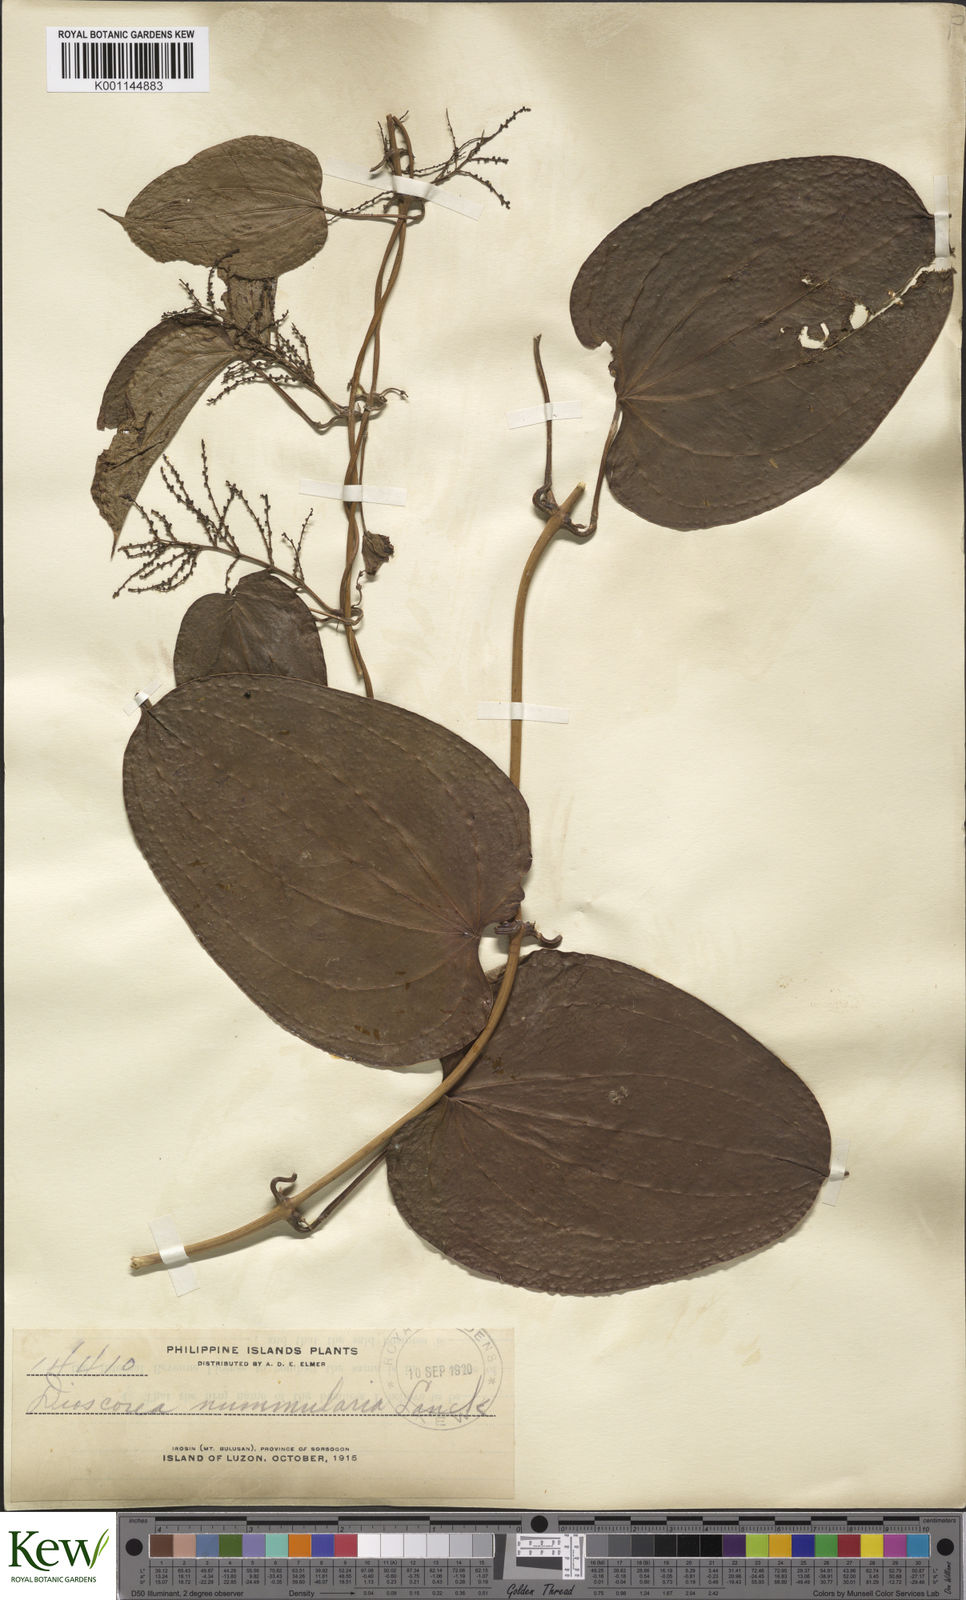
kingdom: Plantae
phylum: Tracheophyta
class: Liliopsida
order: Dioscoreales
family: Dioscoreaceae
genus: Dioscorea
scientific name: Dioscorea nummularia
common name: Pacific yam
